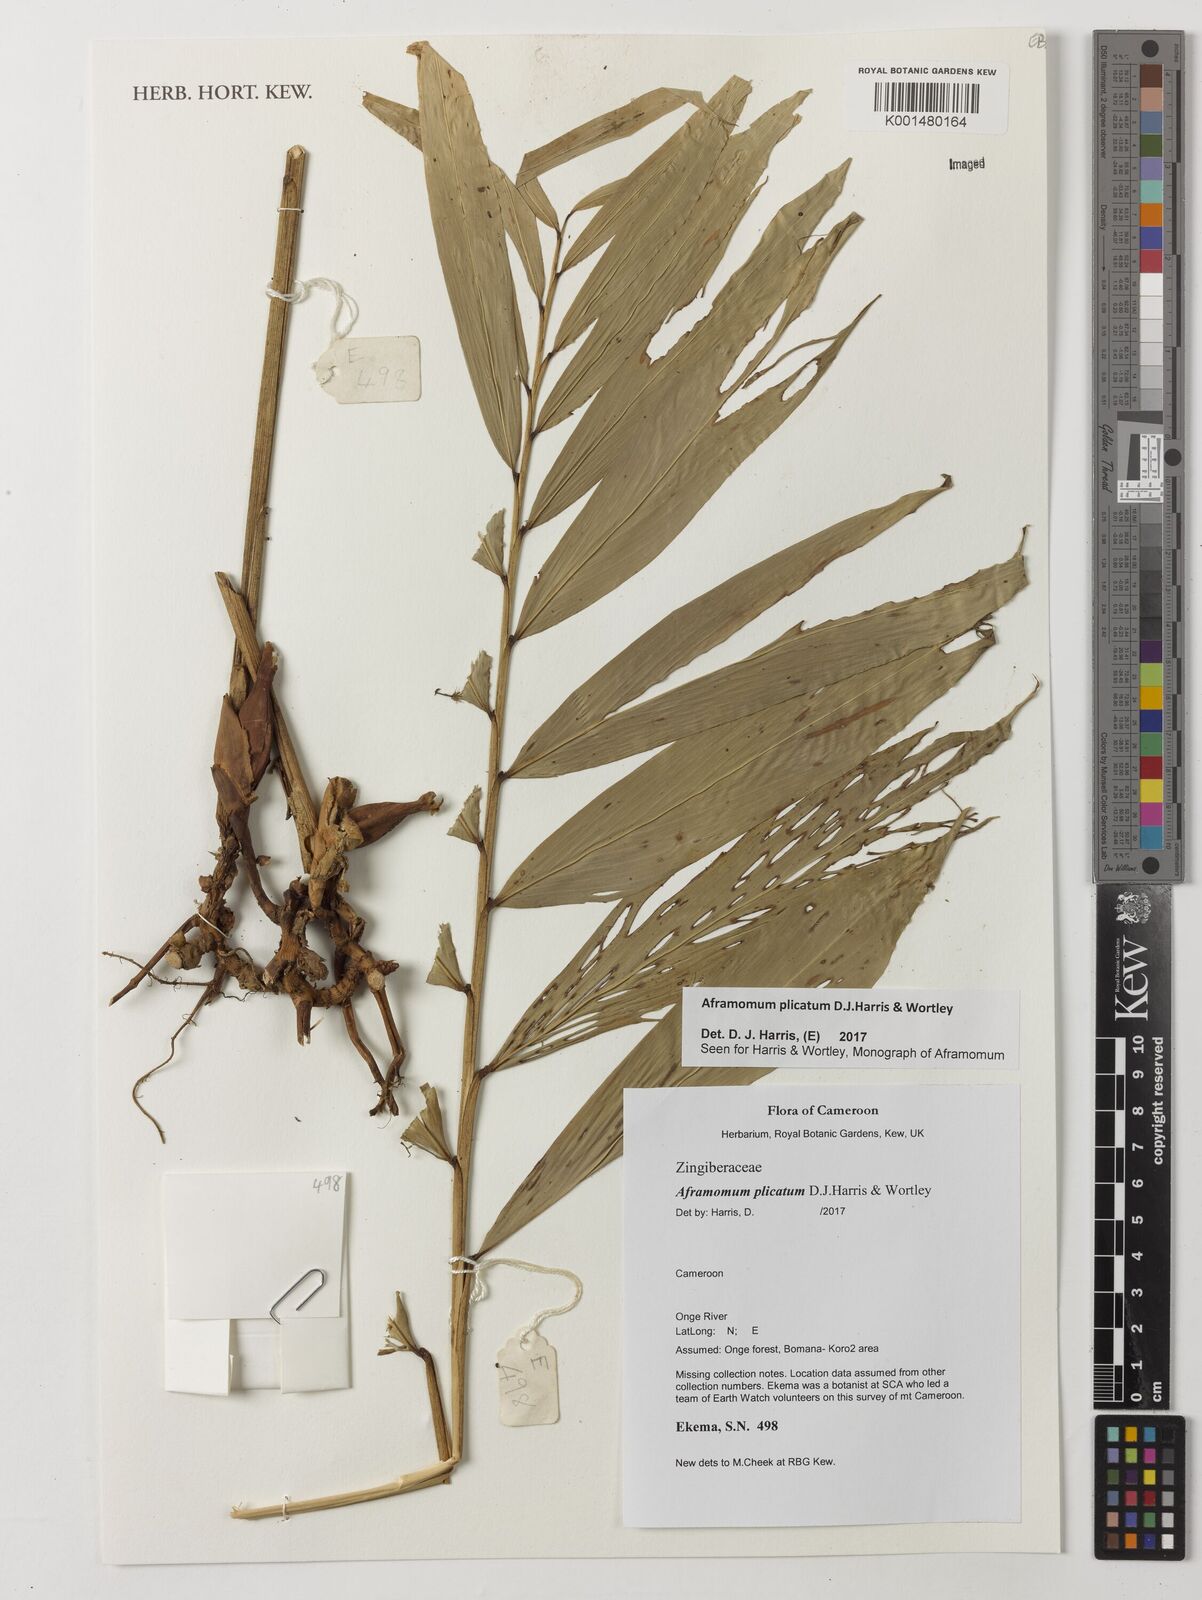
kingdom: Plantae
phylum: Tracheophyta
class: Liliopsida
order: Zingiberales
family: Zingiberaceae
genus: Aframomum
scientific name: Aframomum plicatum
